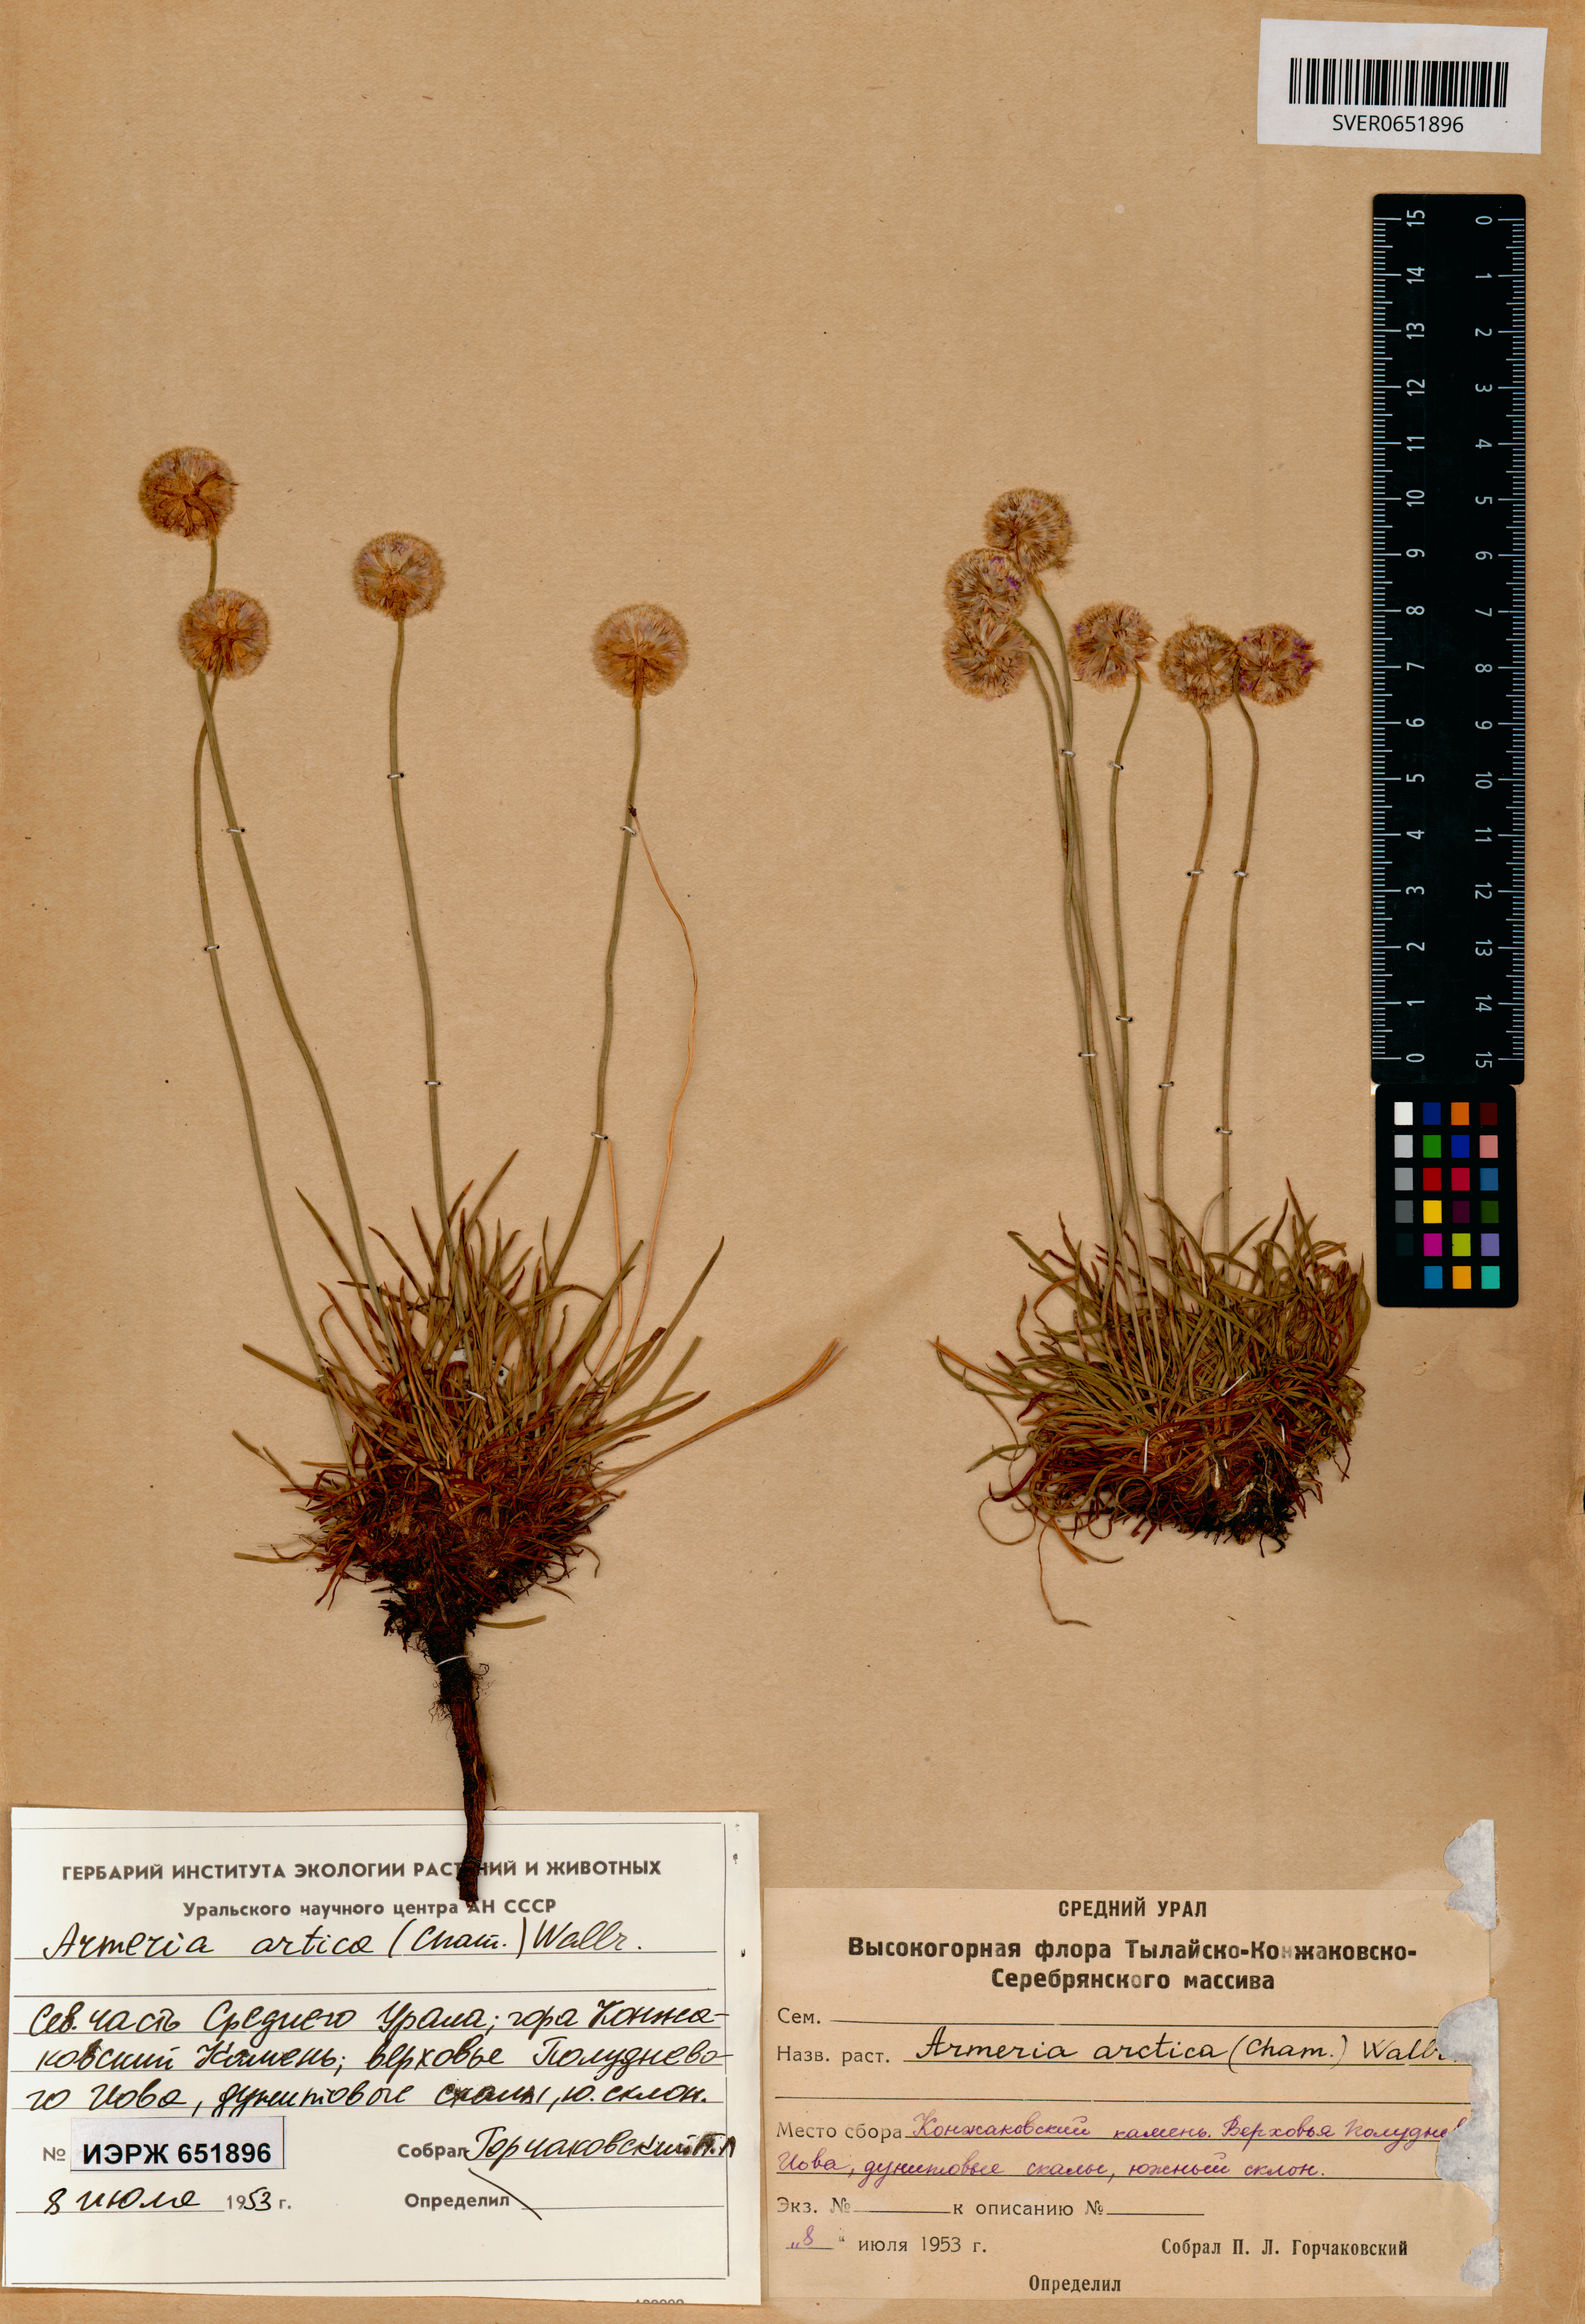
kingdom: Plantae
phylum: Tracheophyta
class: Magnoliopsida
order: Caryophyllales
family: Plumbaginaceae
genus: Armeria
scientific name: Armeria maritima
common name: Thrift
